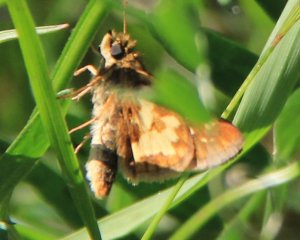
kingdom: Animalia
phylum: Arthropoda
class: Insecta
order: Lepidoptera
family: Hesperiidae
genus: Polites
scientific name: Polites coras
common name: Peck's Skipper
